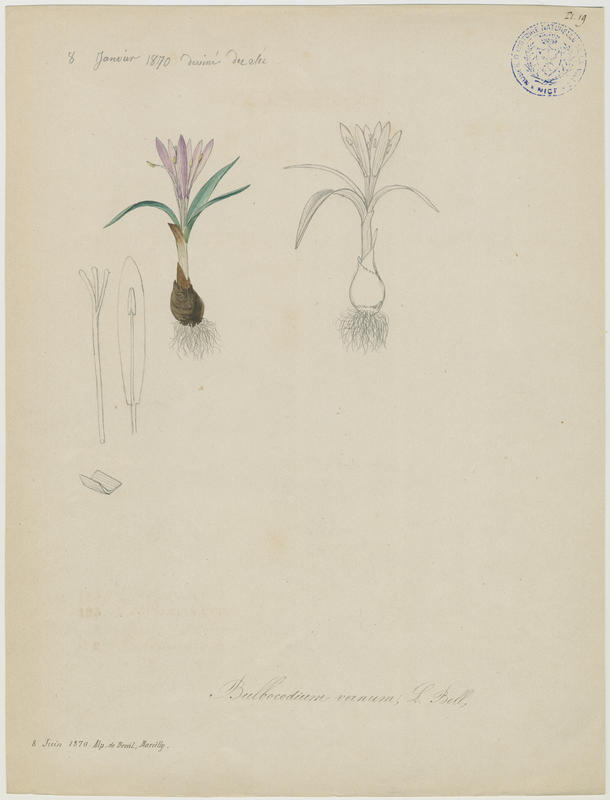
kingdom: Plantae
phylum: Tracheophyta
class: Liliopsida
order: Liliales
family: Colchicaceae
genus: Colchicum
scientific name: Colchicum bulbocodium
